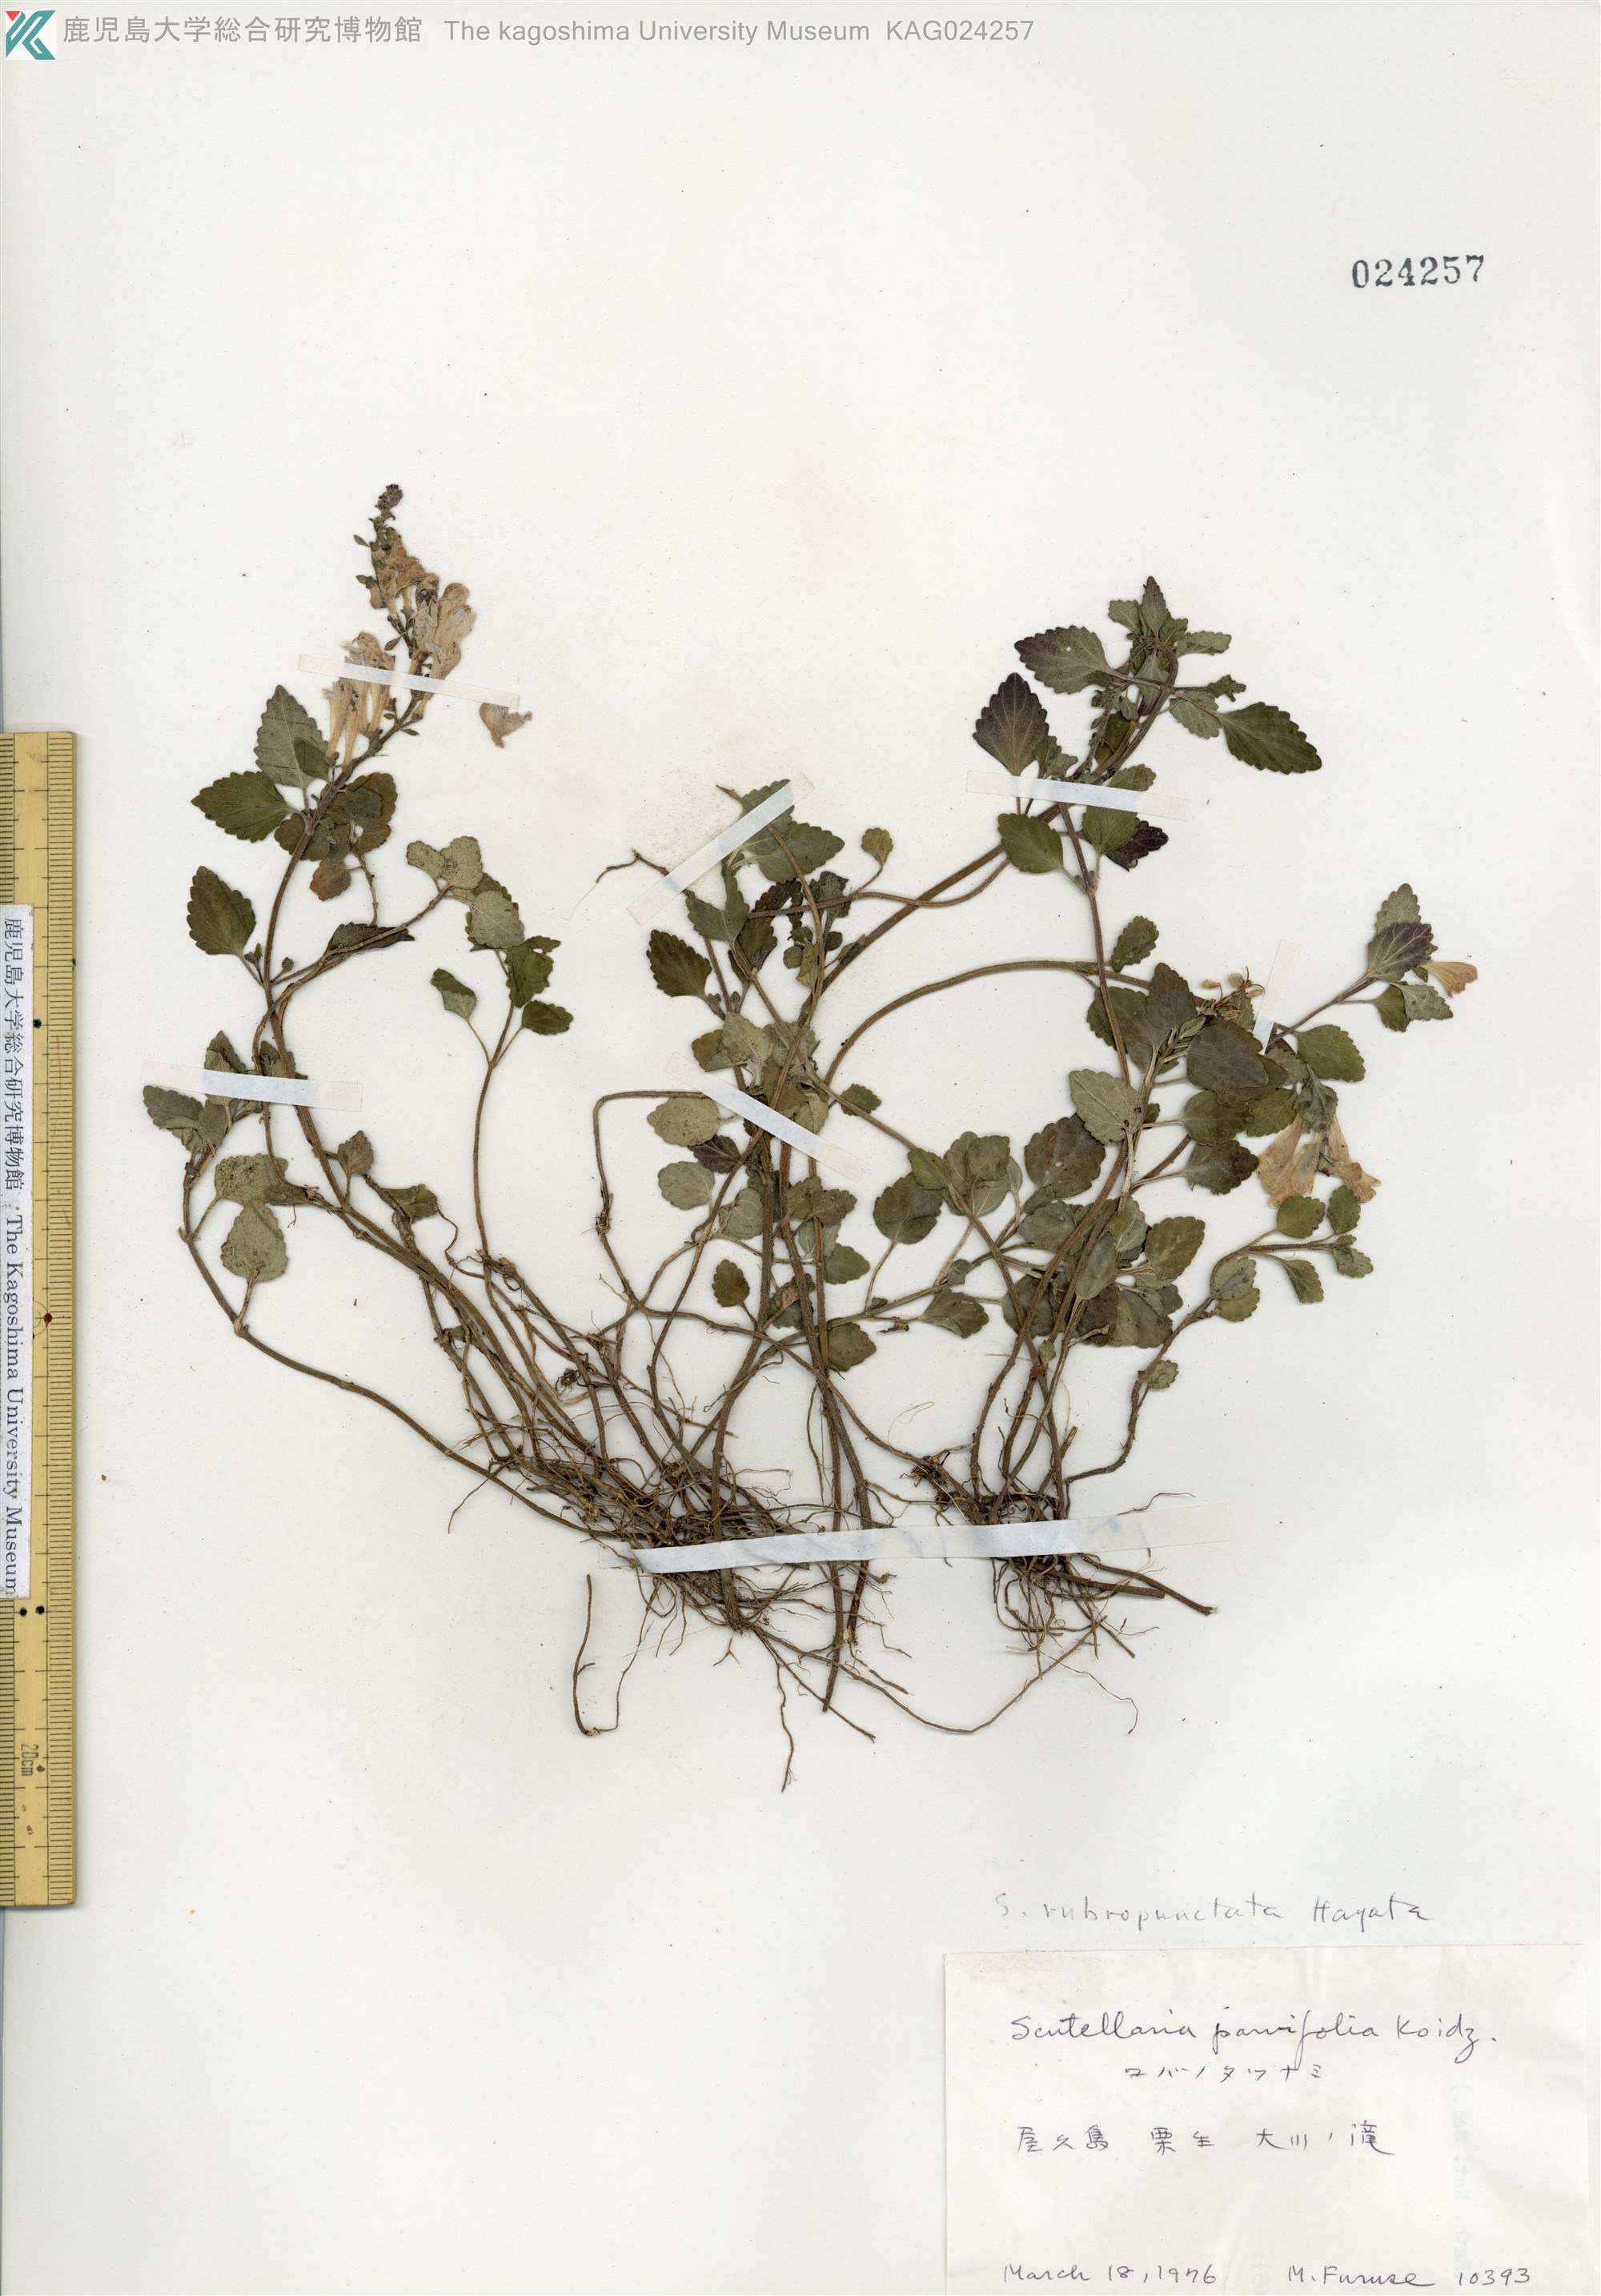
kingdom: Plantae
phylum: Tracheophyta
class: Magnoliopsida
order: Lamiales
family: Lamiaceae
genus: Scutellaria
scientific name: Scutellaria rubropunctata
